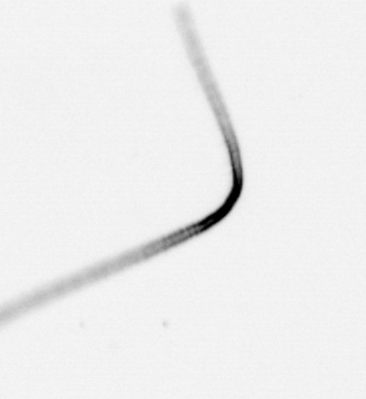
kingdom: Chromista
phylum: Ochrophyta
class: Bacillariophyceae
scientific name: Bacillariophyceae
